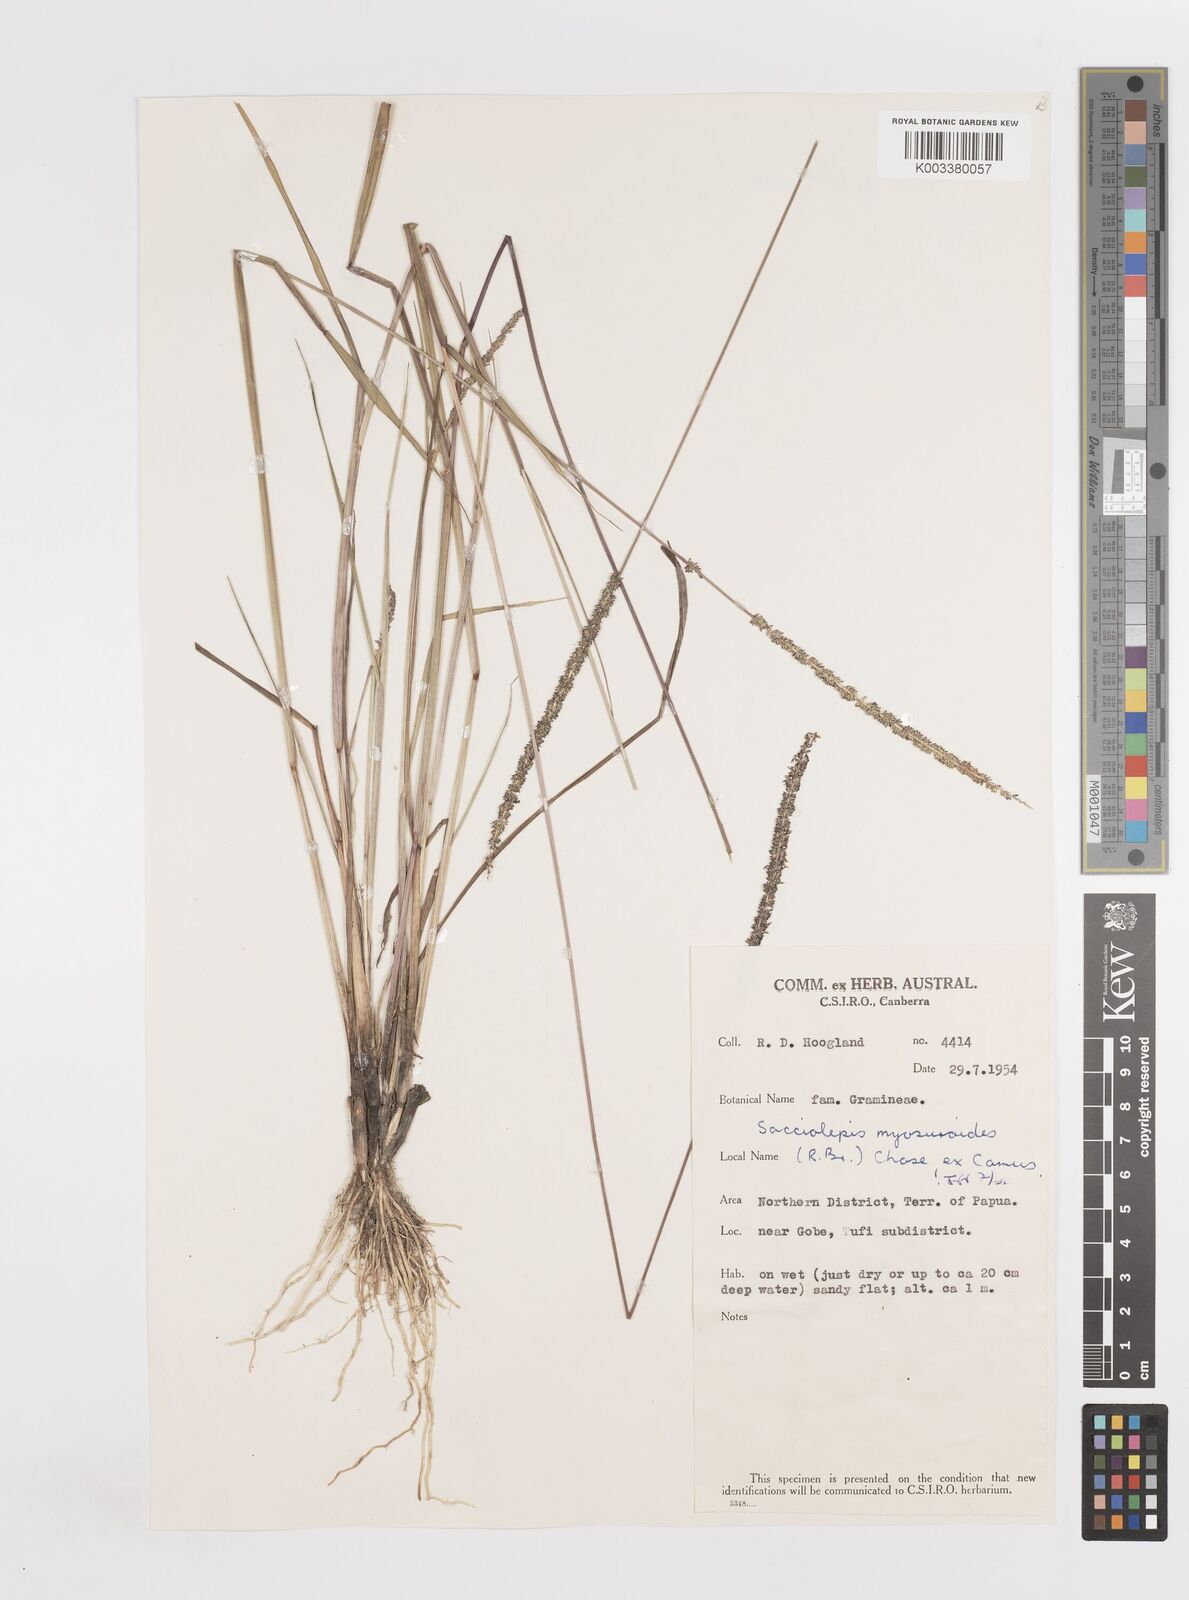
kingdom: Plantae
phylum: Tracheophyta
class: Liliopsida
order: Poales
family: Poaceae
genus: Sacciolepis
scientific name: Sacciolepis myosuroides
